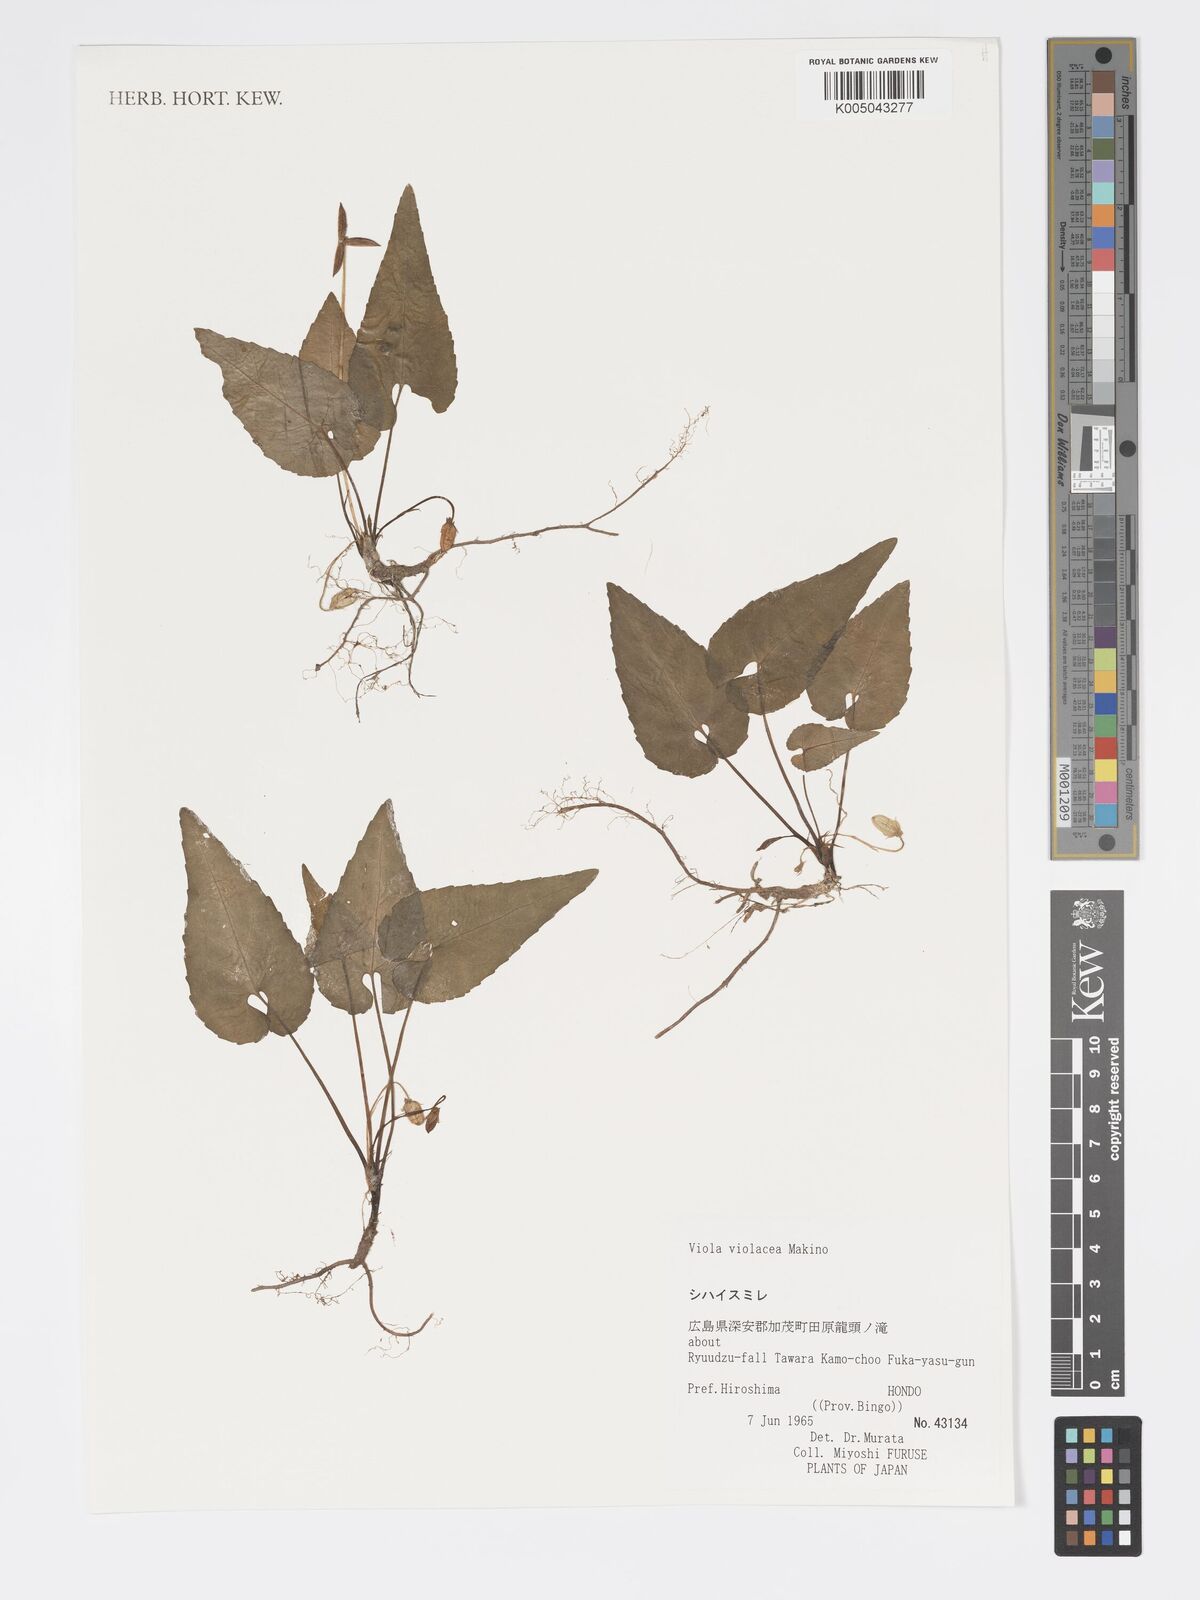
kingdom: Plantae
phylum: Tracheophyta
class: Magnoliopsida
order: Malpighiales
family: Violaceae
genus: Viola
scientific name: Viola violacea
